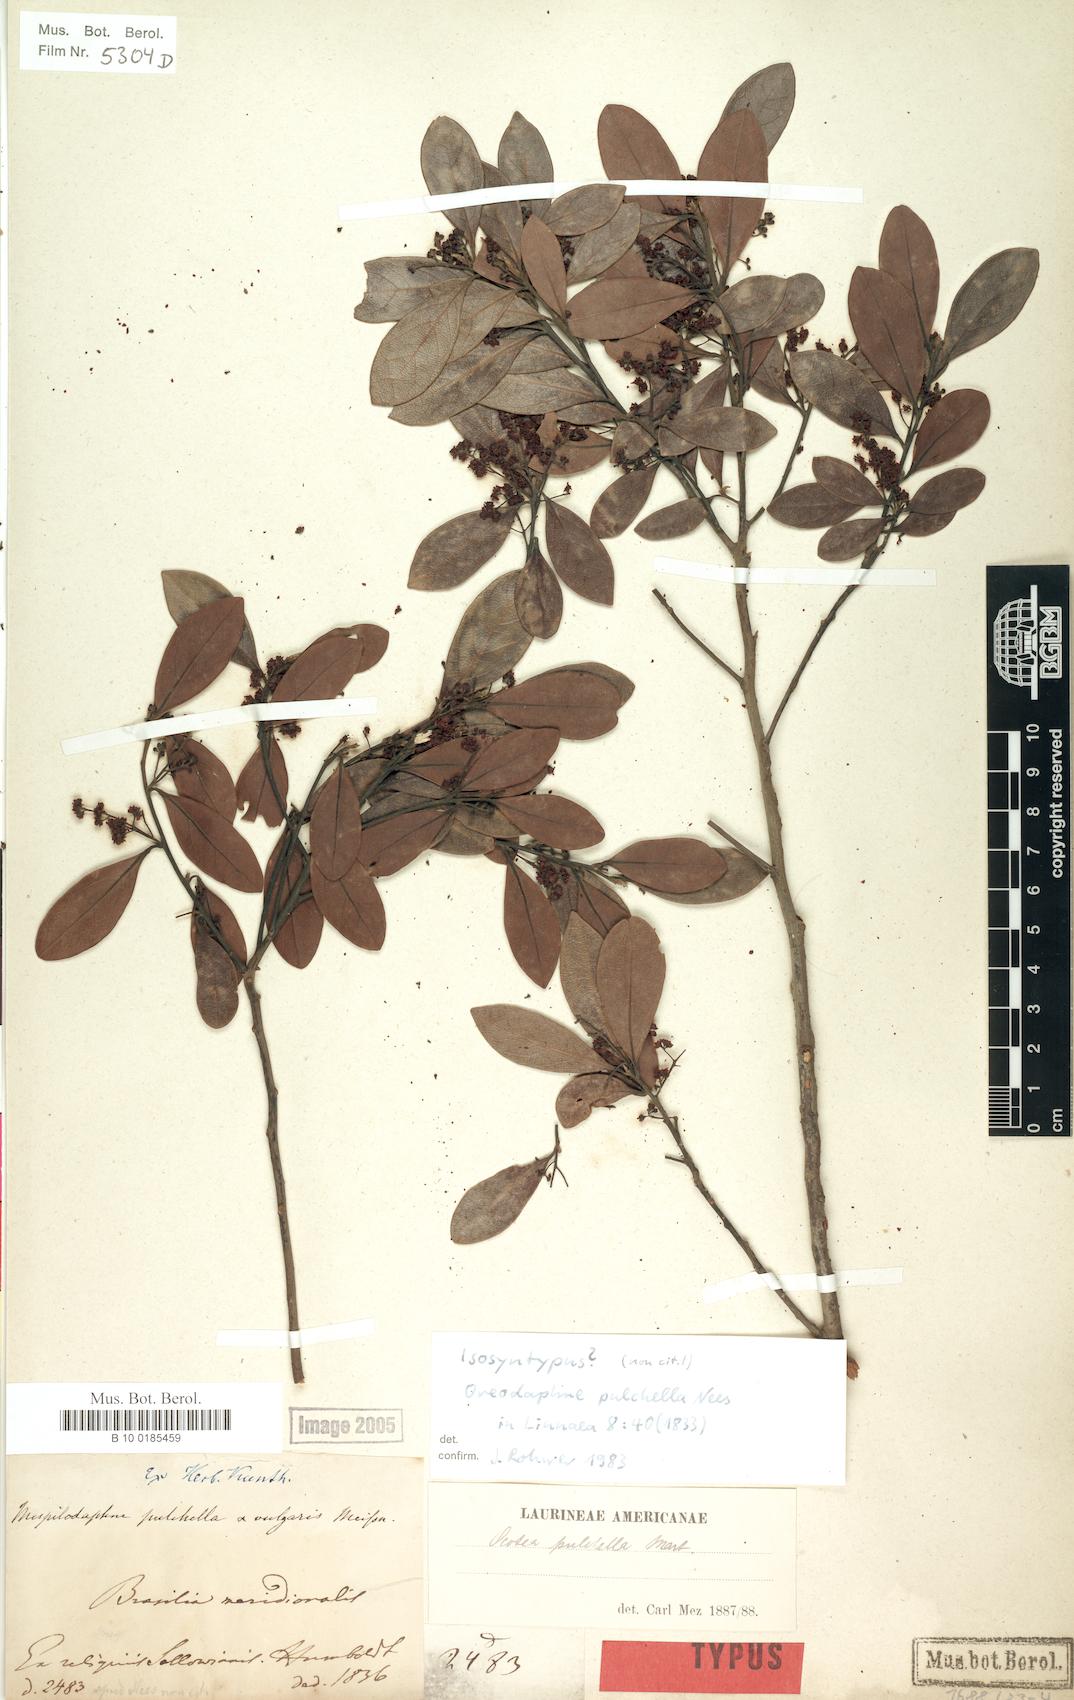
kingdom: Plantae
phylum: Tracheophyta
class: Magnoliopsida
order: Laurales
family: Lauraceae
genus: Mespilodaphne
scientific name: Mespilodaphne pulchella
